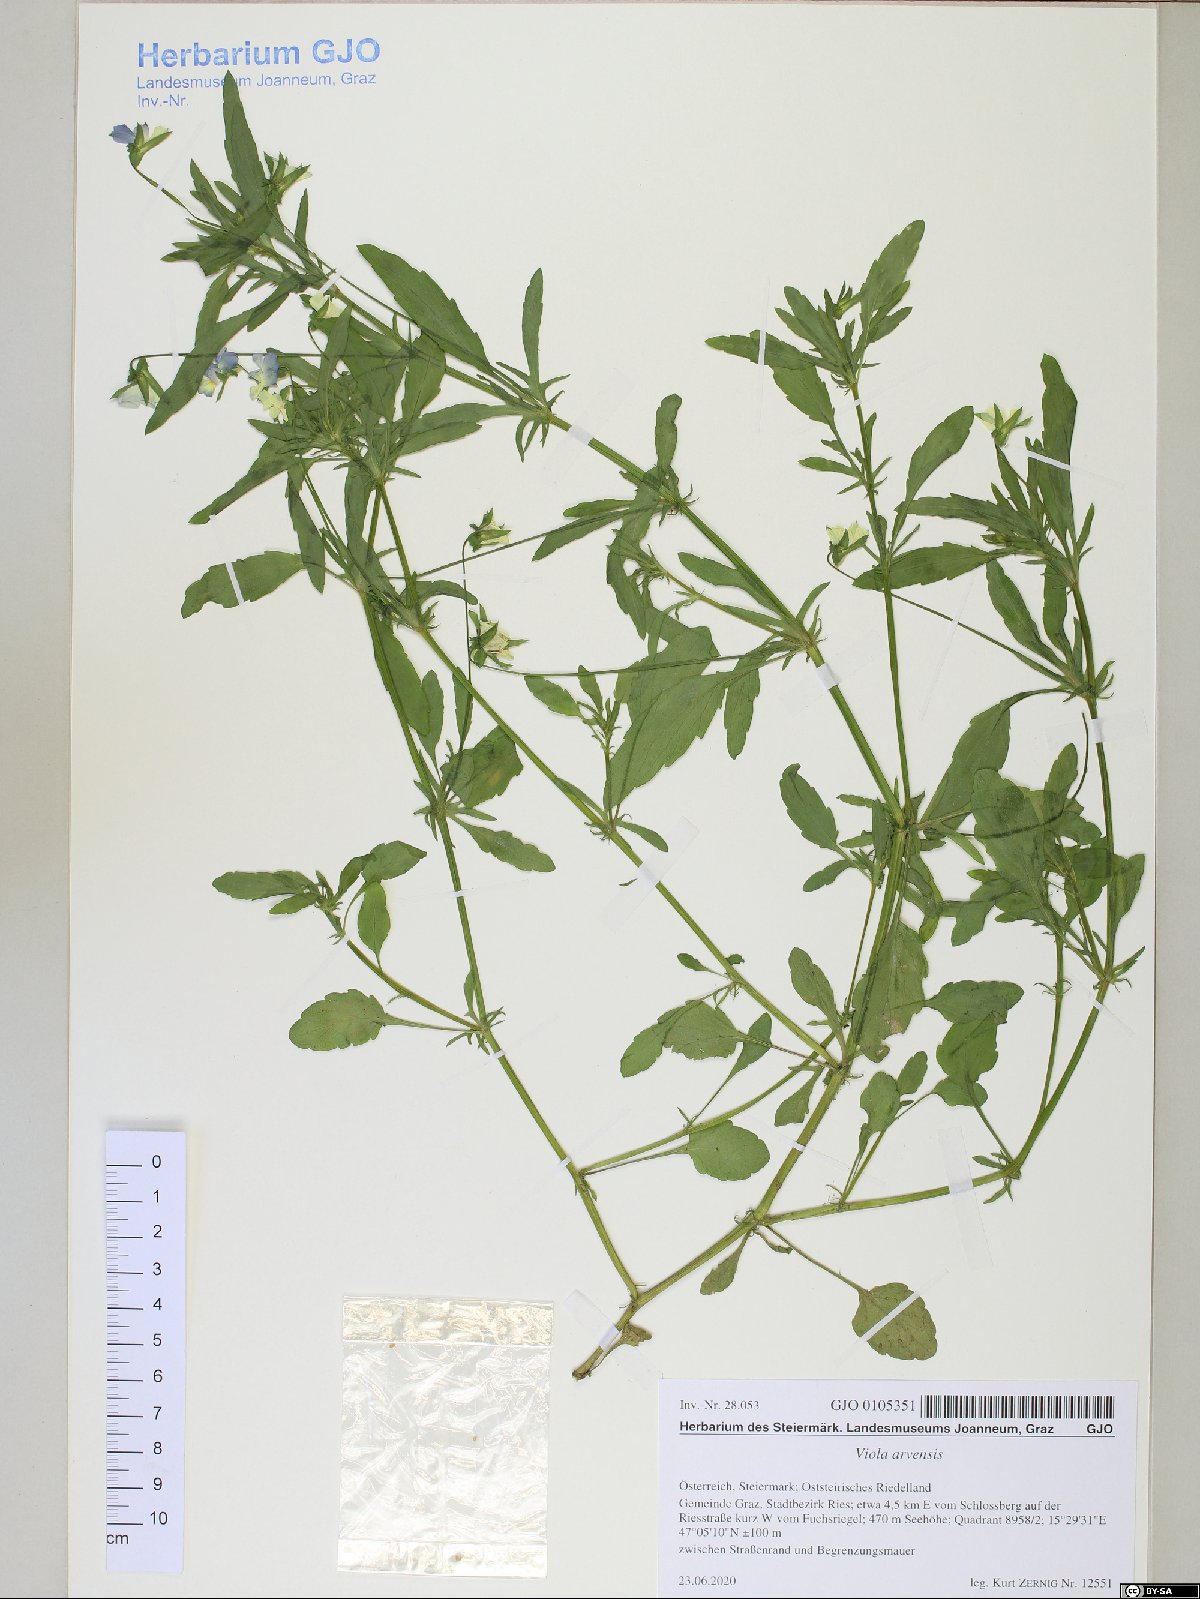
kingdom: Plantae
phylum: Tracheophyta
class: Magnoliopsida
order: Malpighiales
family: Violaceae
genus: Viola
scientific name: Viola arvensis
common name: Field pansy
